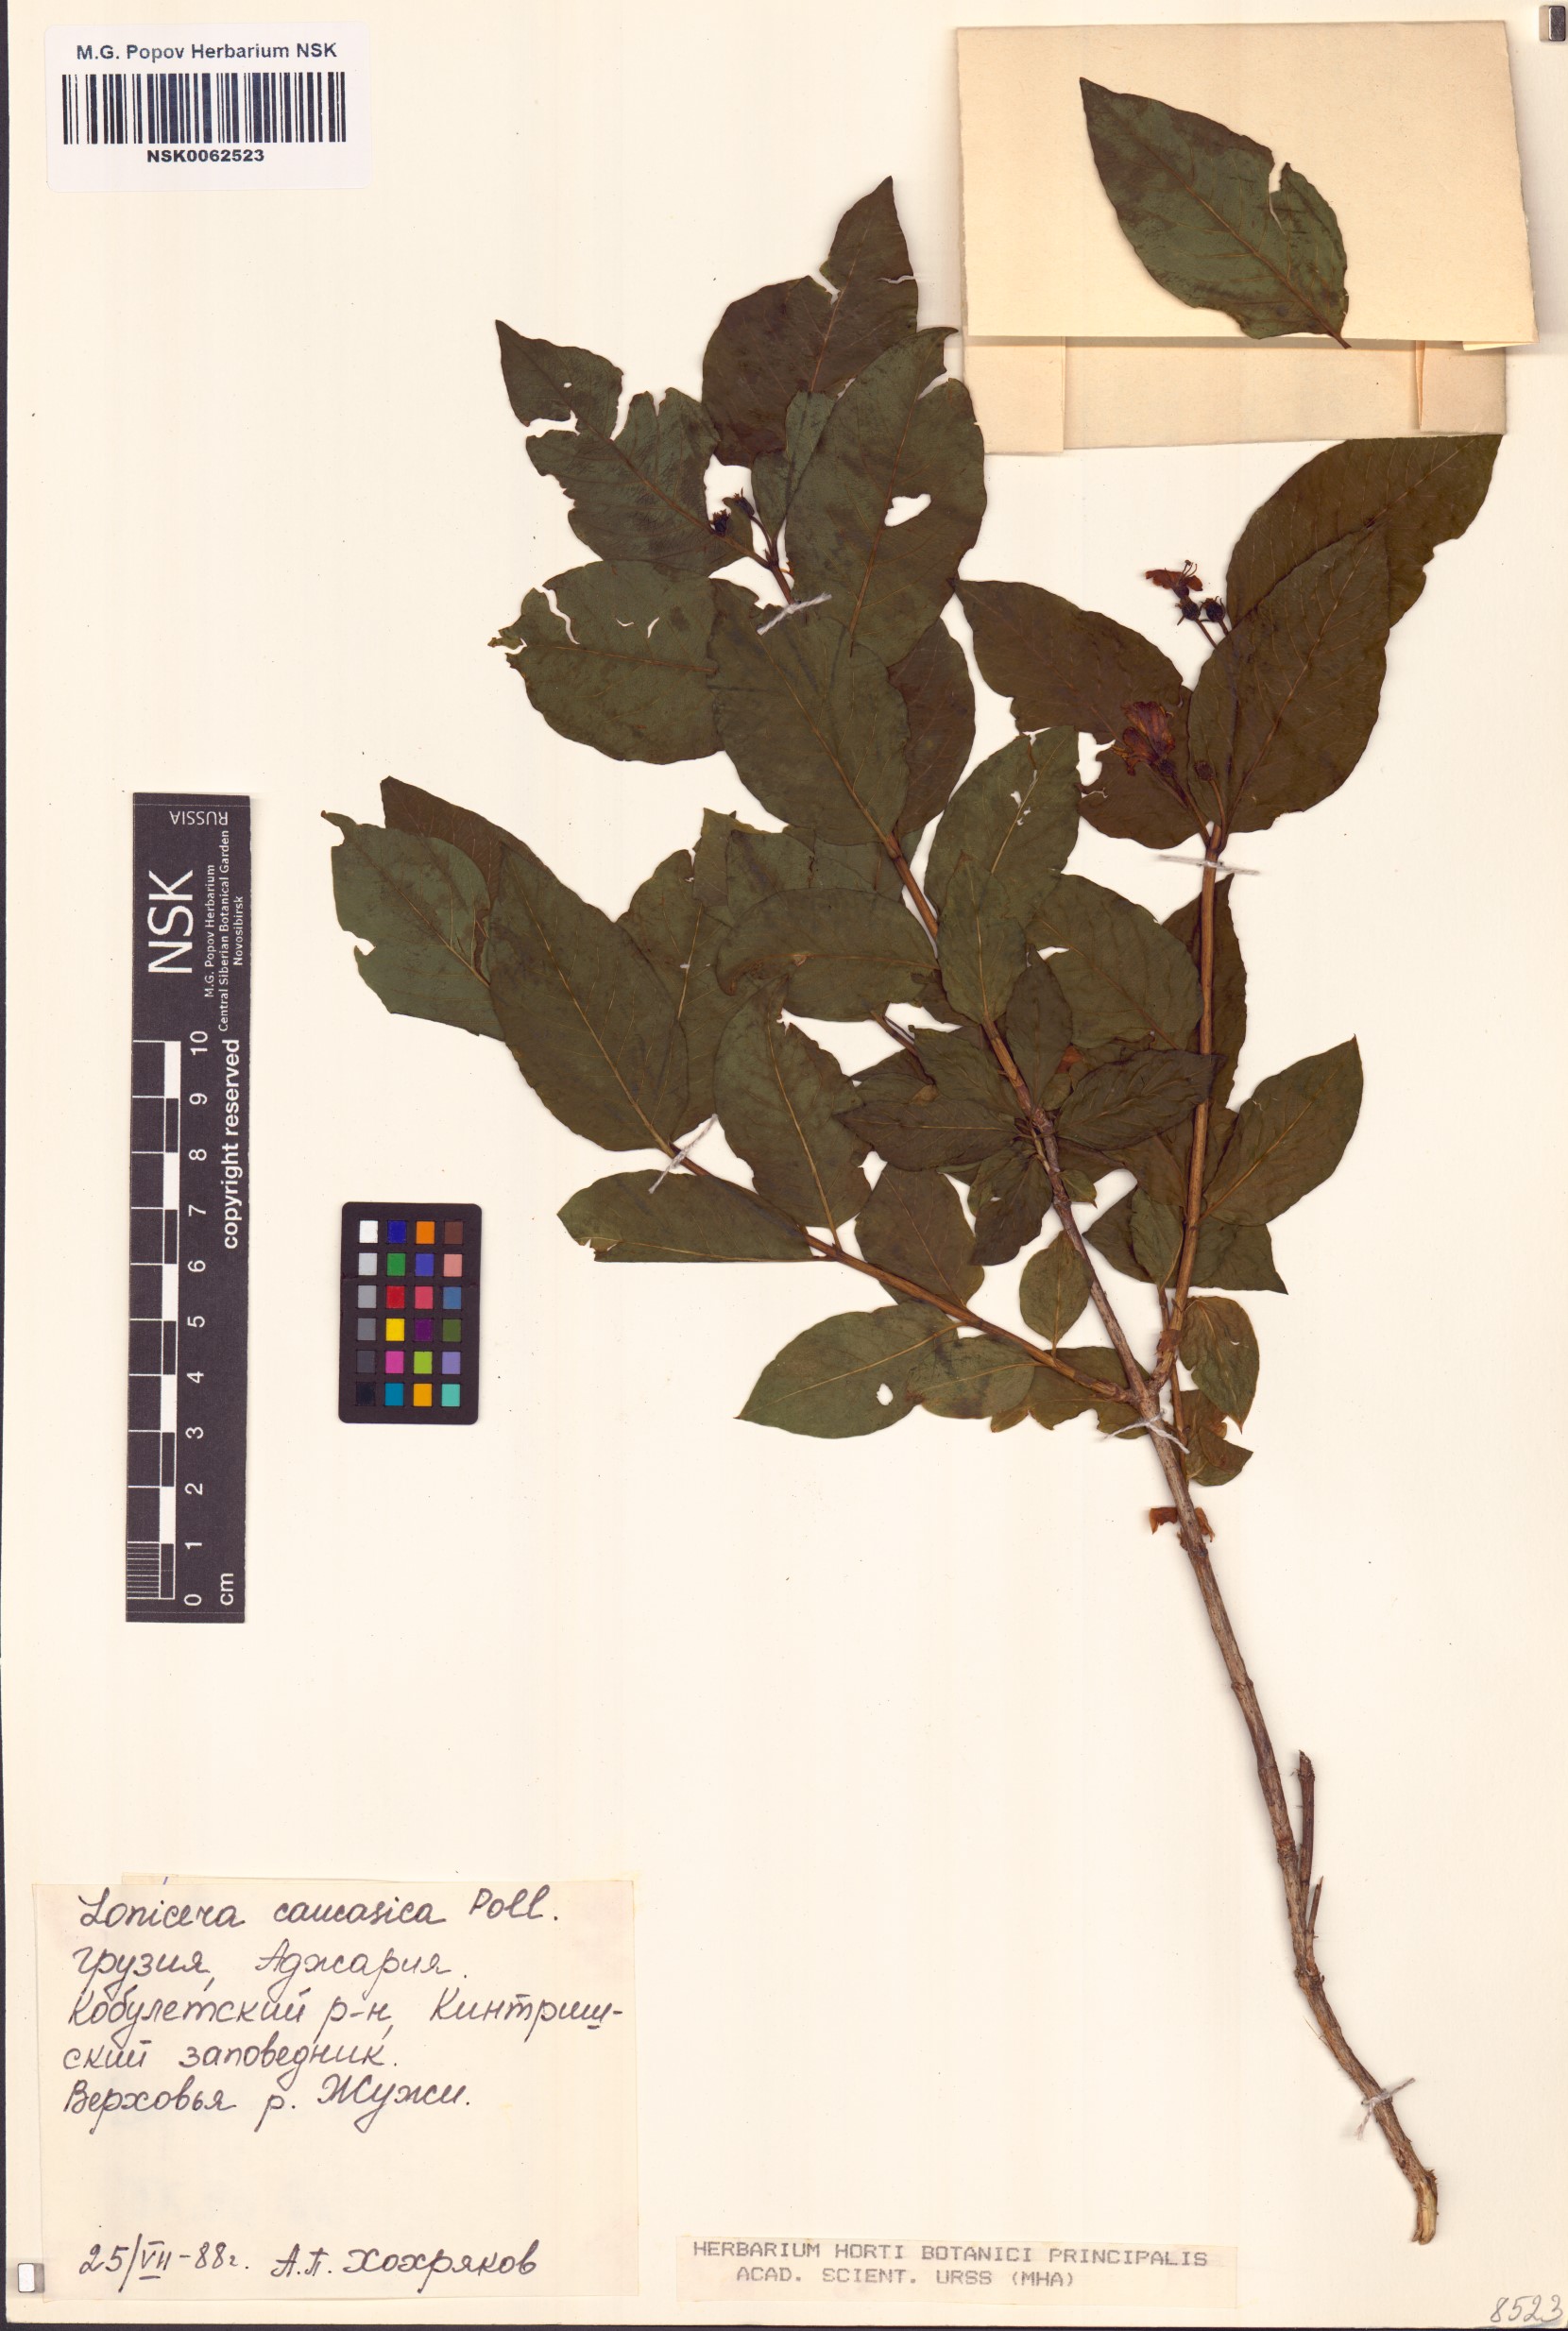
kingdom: Plantae
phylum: Tracheophyta
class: Magnoliopsida
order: Dipsacales
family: Caprifoliaceae
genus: Lonicera
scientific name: Lonicera caucasica
